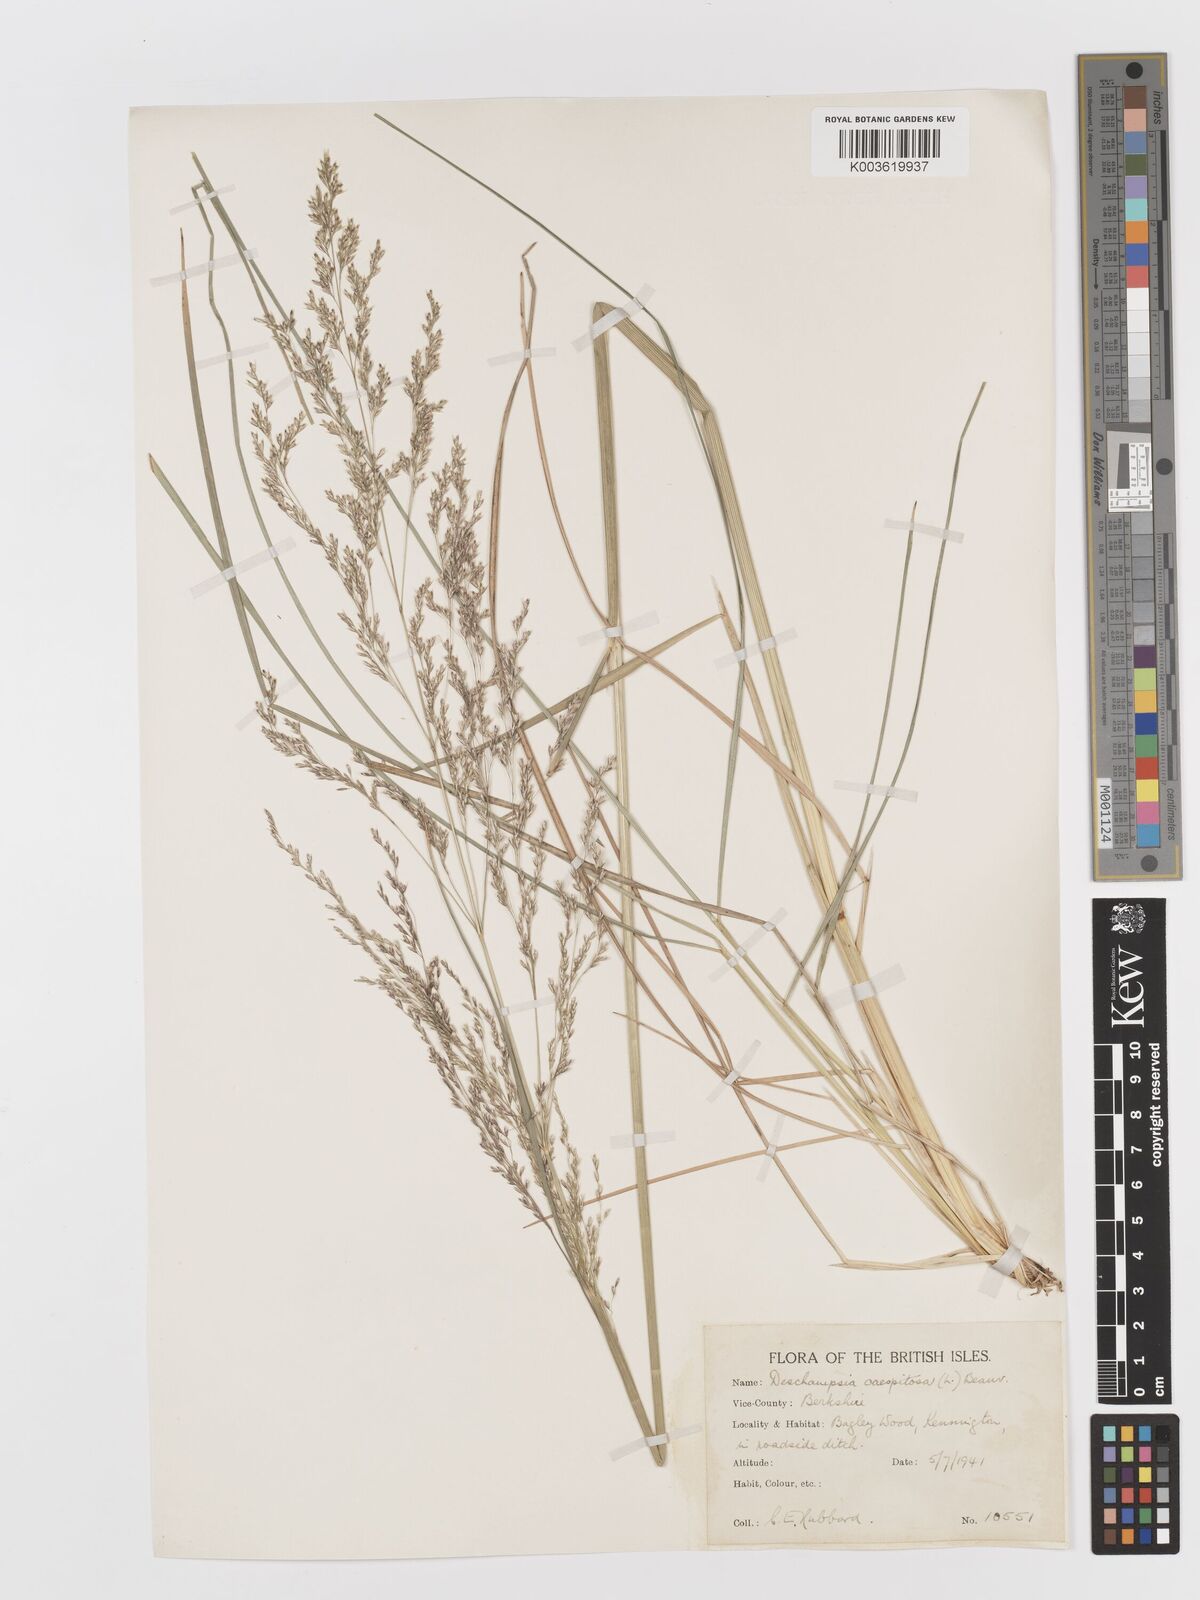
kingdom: Plantae
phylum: Tracheophyta
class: Liliopsida
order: Poales
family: Poaceae
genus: Deschampsia
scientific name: Deschampsia
